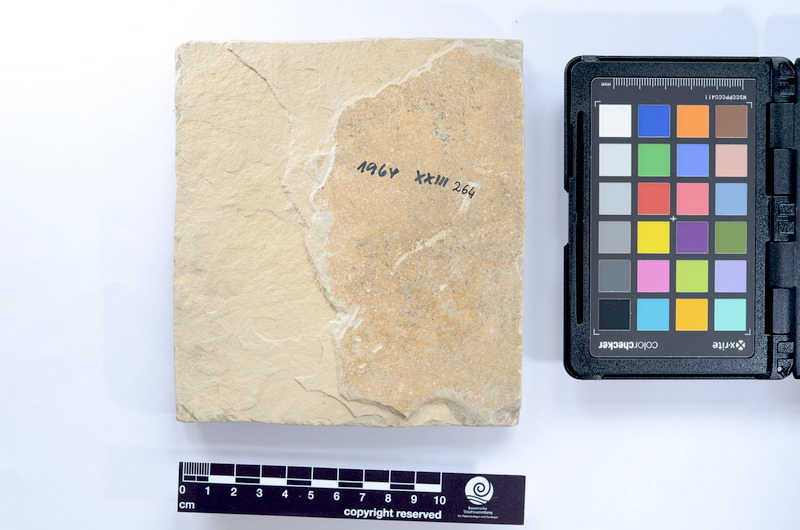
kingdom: Animalia
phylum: Chordata
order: Salmoniformes
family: Orthogonikleithridae
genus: Leptolepides
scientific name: Leptolepides sprattiformis
